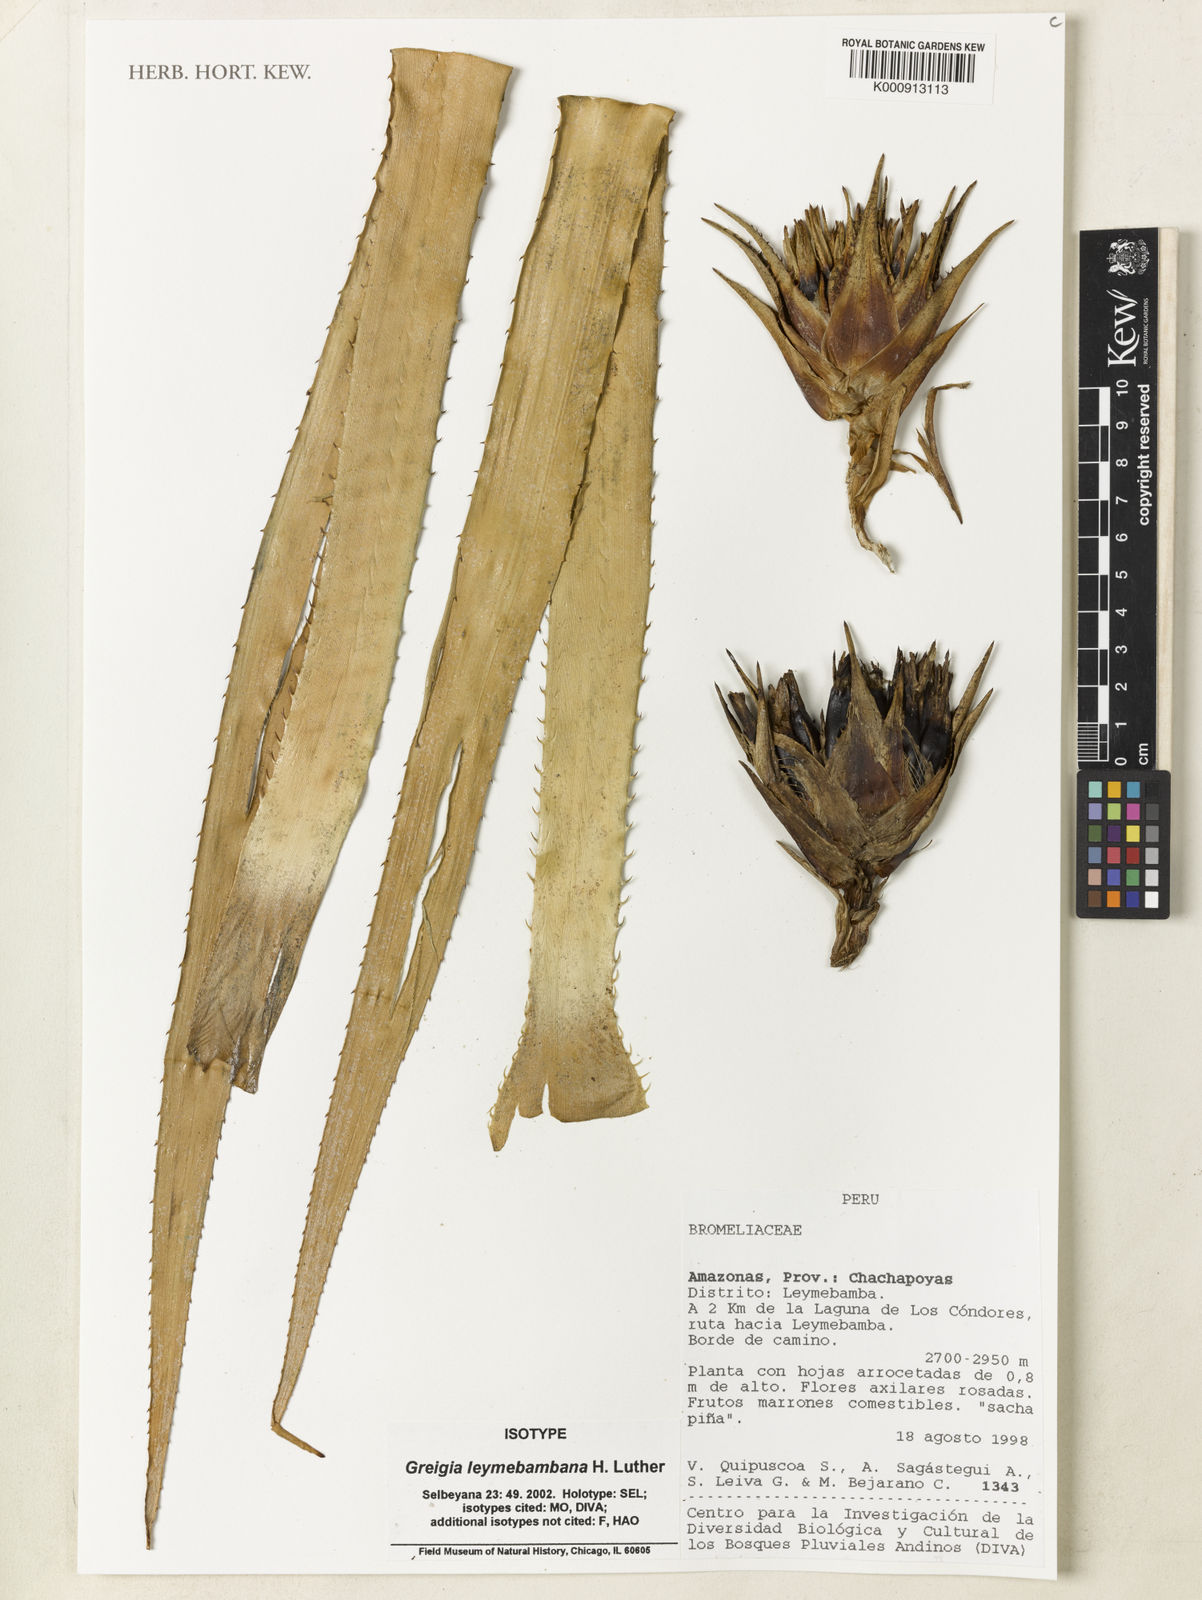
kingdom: Plantae
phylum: Tracheophyta
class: Liliopsida
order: Poales
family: Bromeliaceae
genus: Greigia
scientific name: Greigia leymebambana
